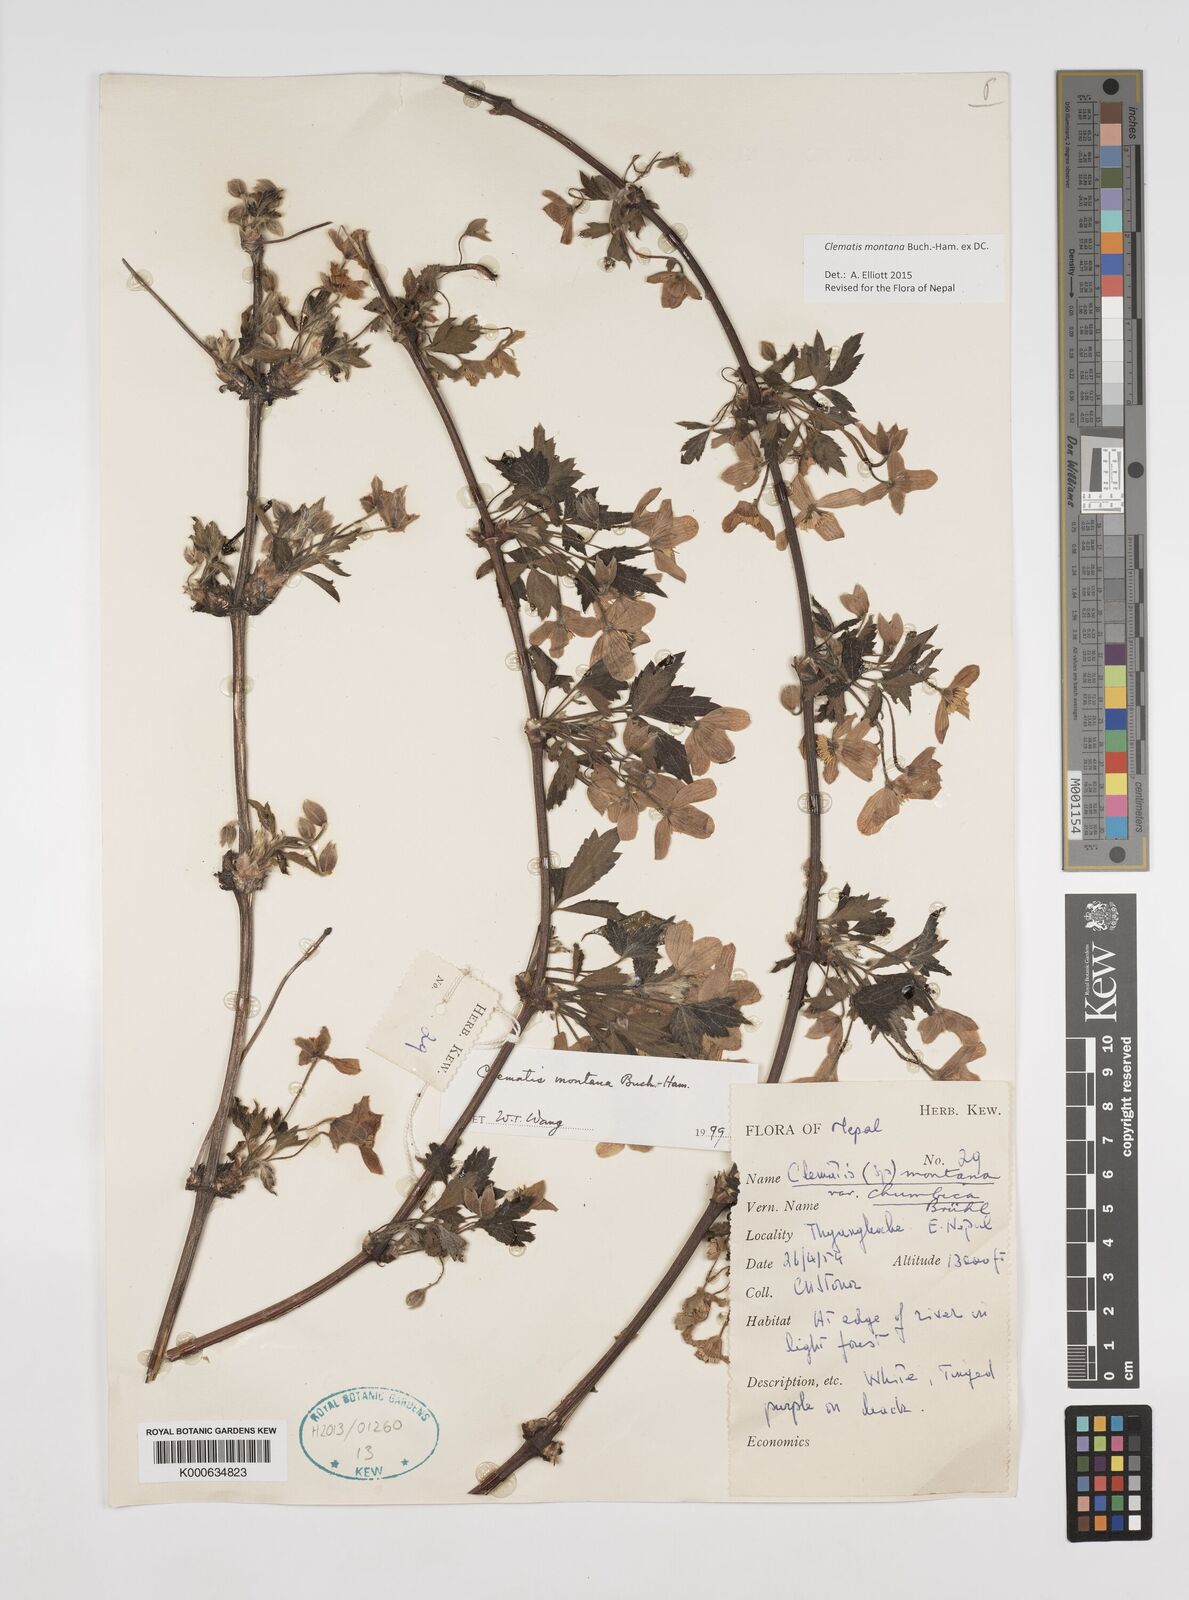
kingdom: Plantae
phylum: Tracheophyta
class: Magnoliopsida
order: Ranunculales
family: Ranunculaceae
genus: Clematis
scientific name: Clematis montana
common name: Himalayan clematis
